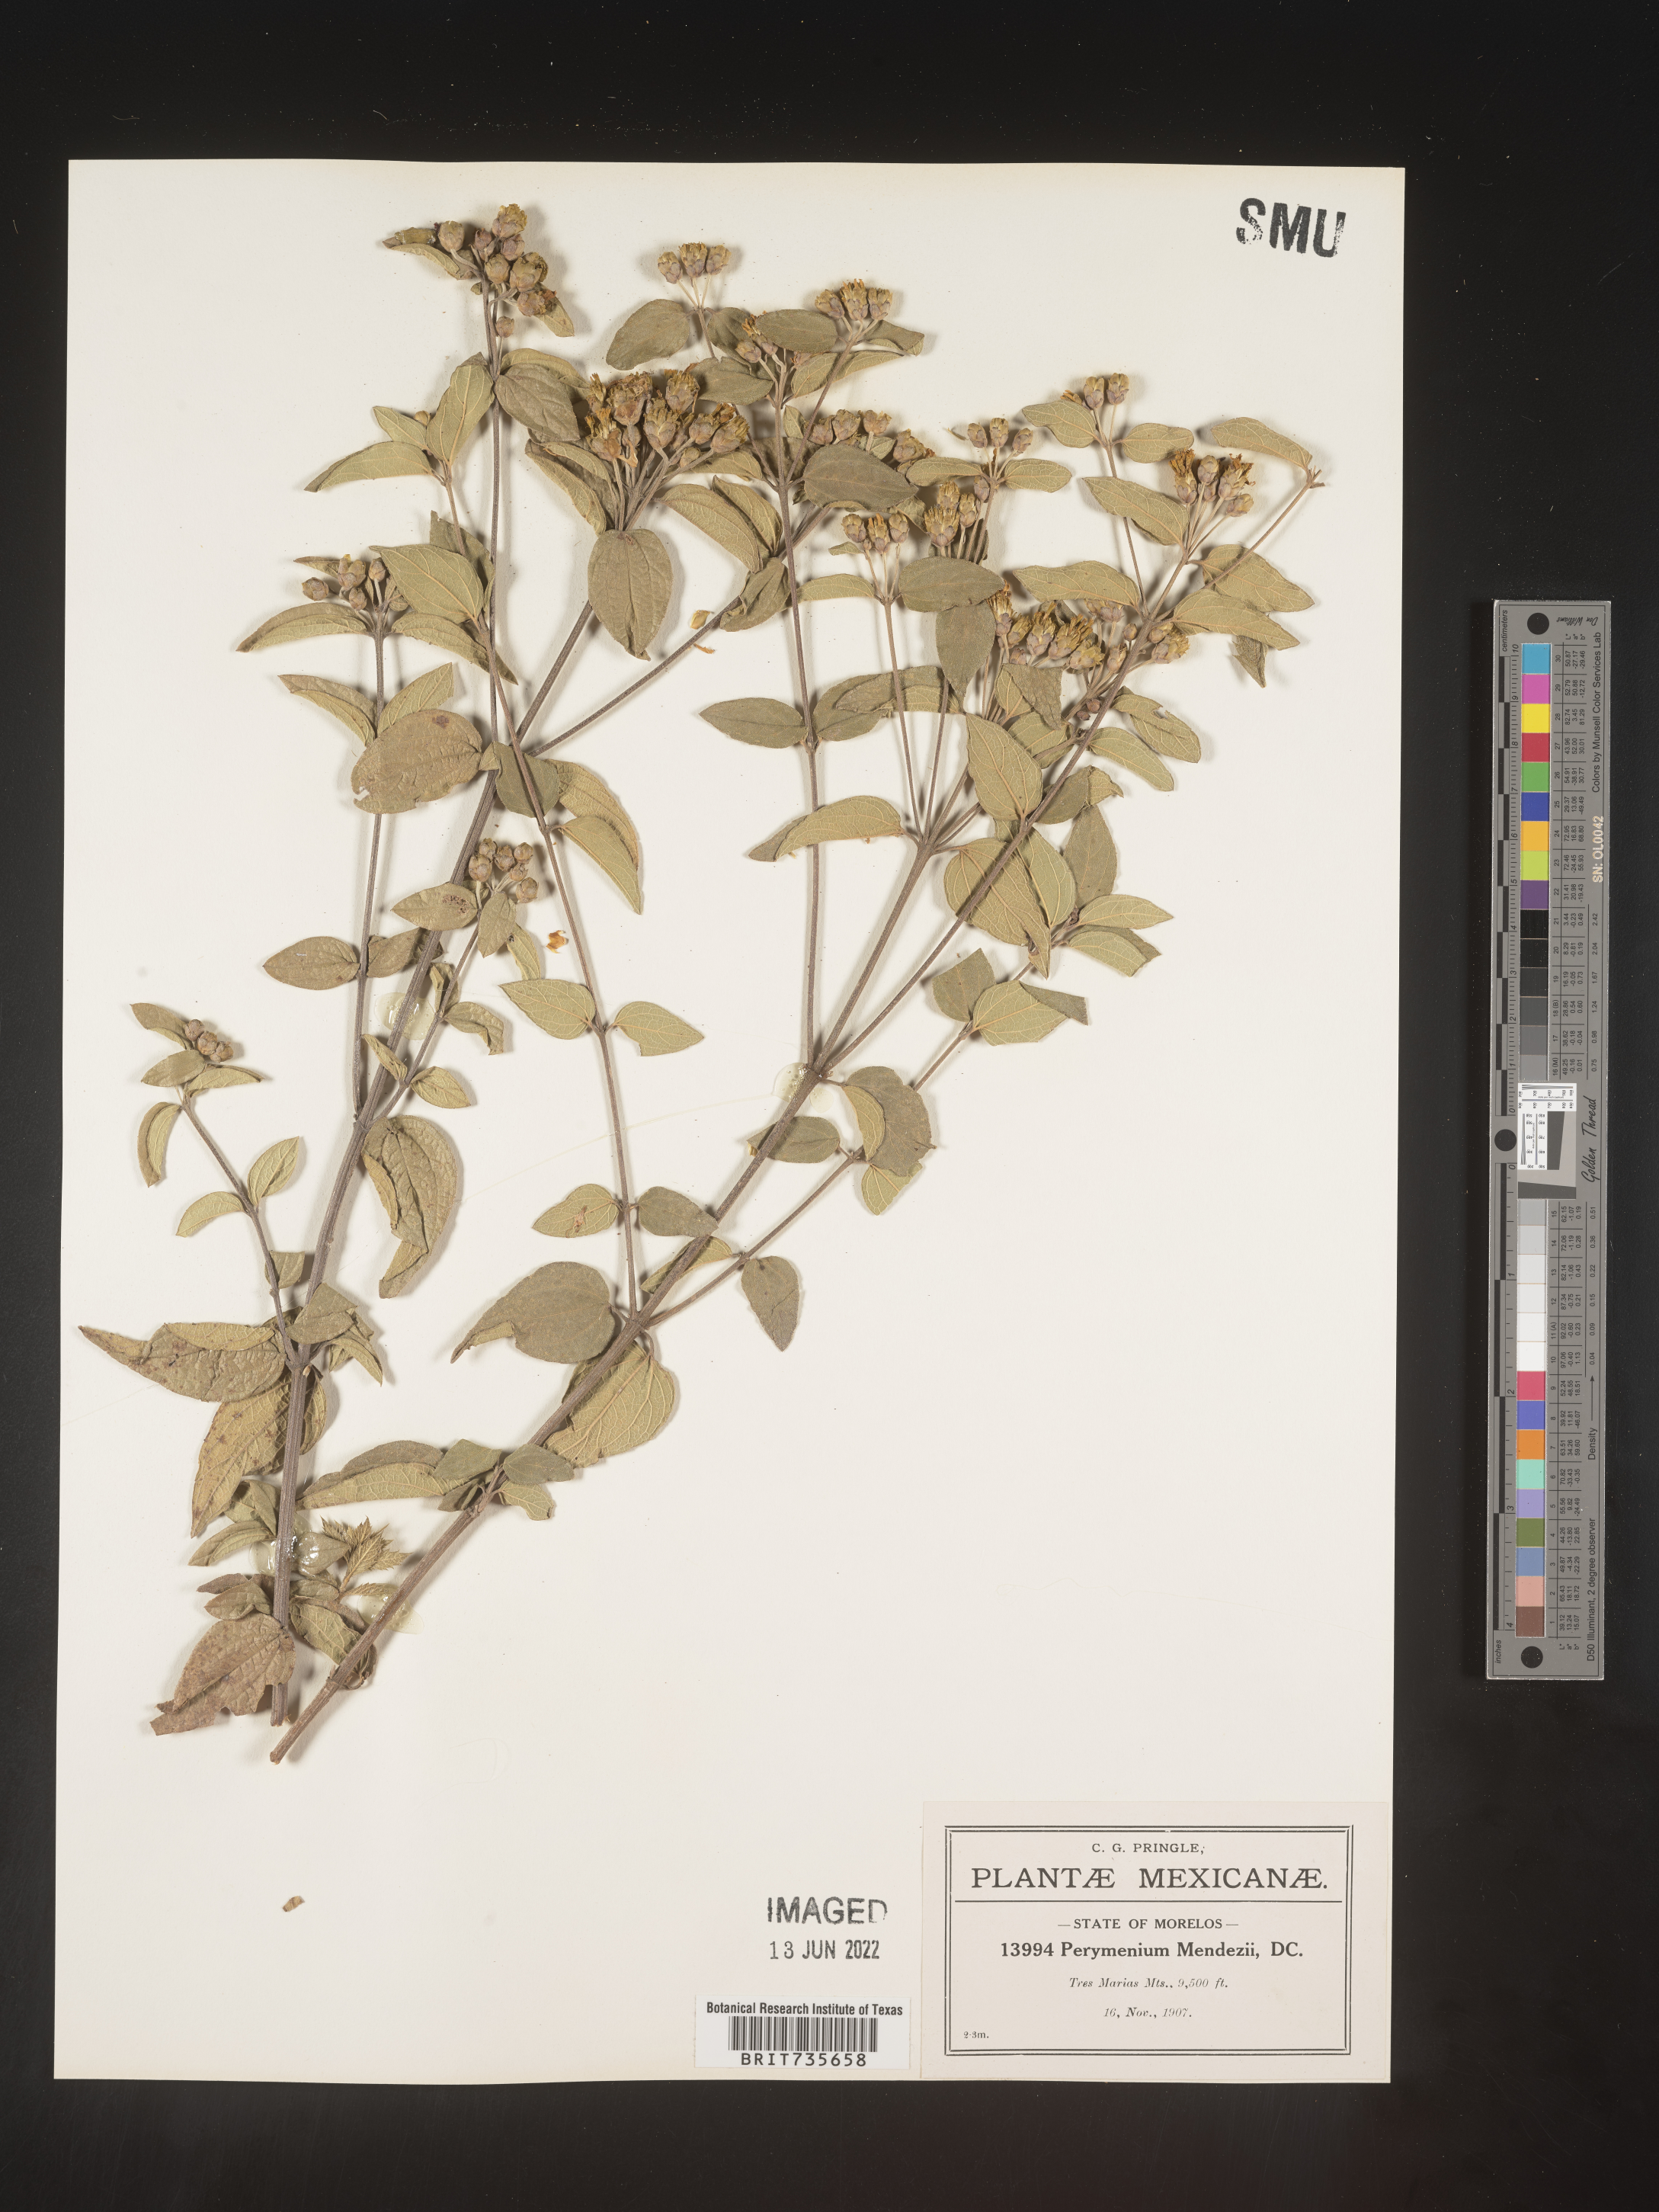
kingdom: Plantae
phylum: Tracheophyta
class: Magnoliopsida
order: Asterales
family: Asteraceae
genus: Perymenium
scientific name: Perymenium
